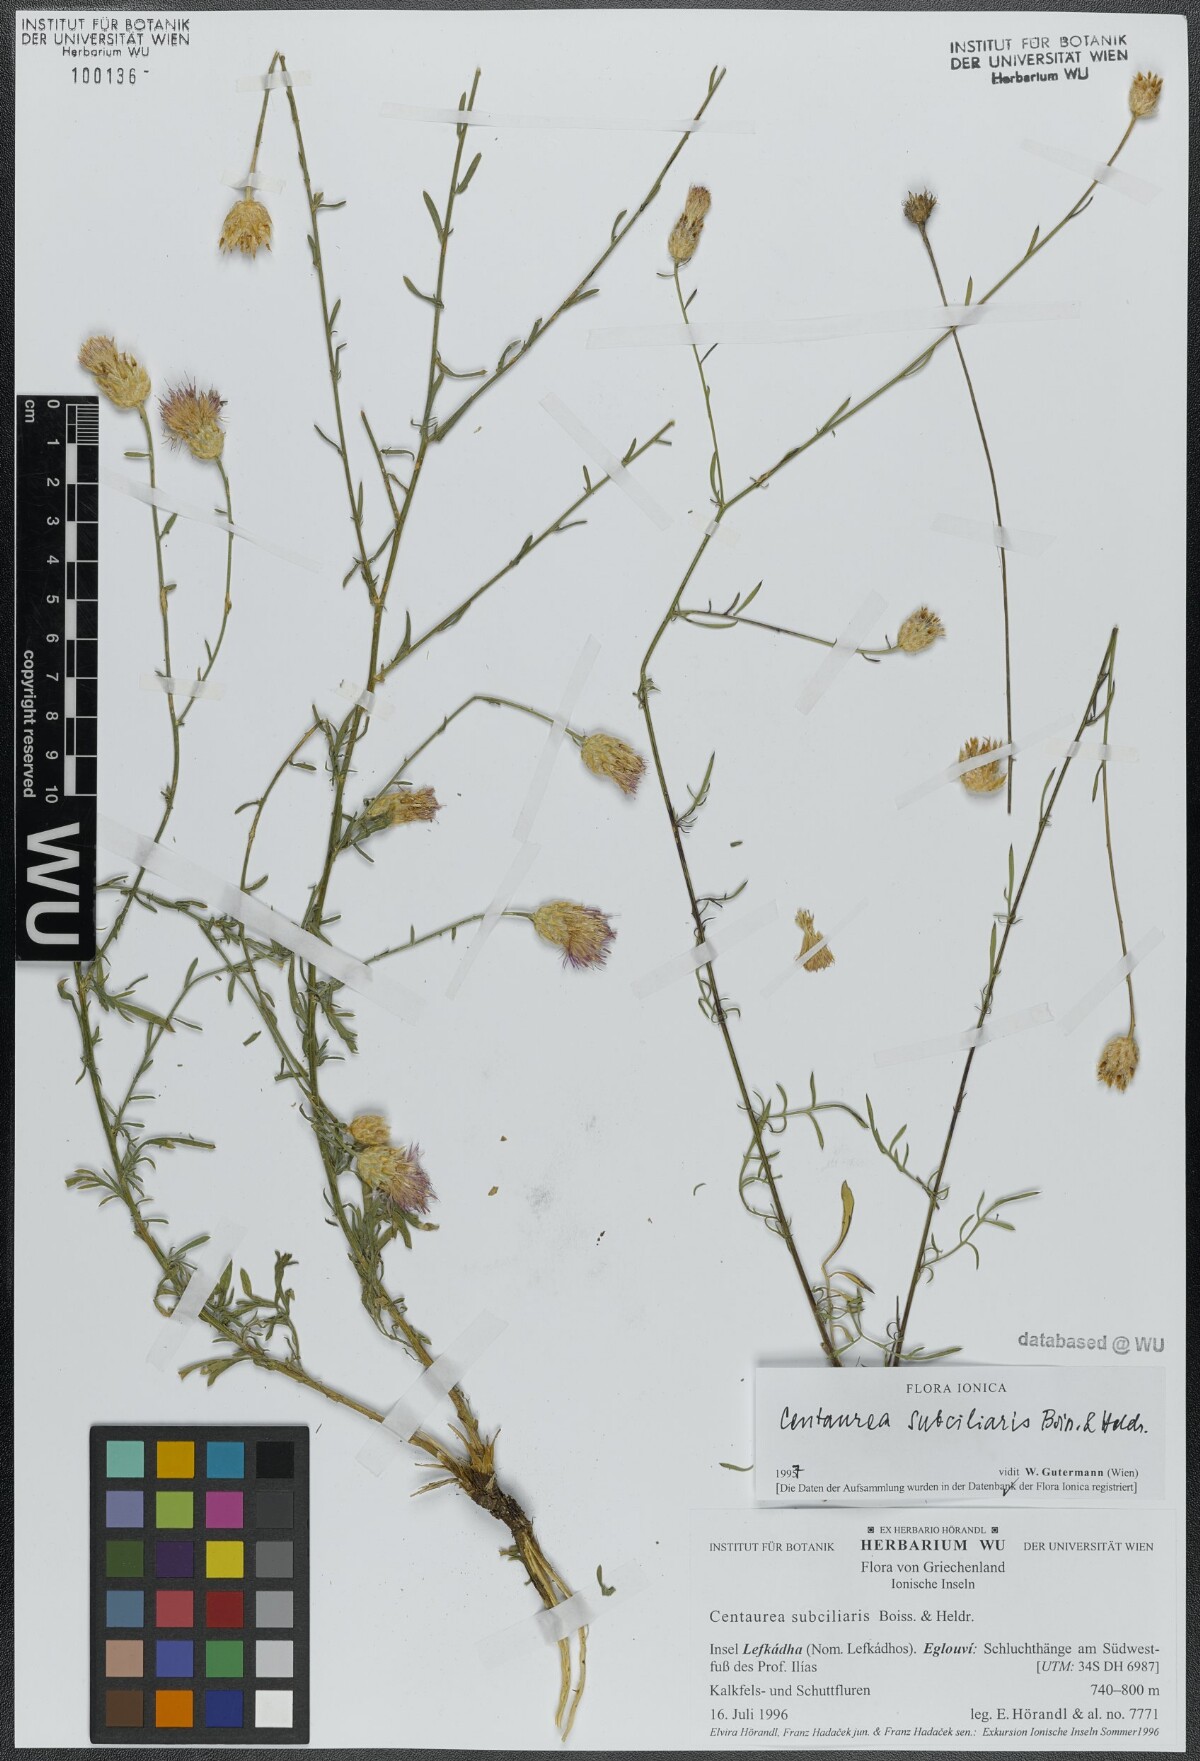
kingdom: Plantae
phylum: Tracheophyta
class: Magnoliopsida
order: Asterales
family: Asteraceae
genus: Centaurea
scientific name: Centaurea subciliaris
